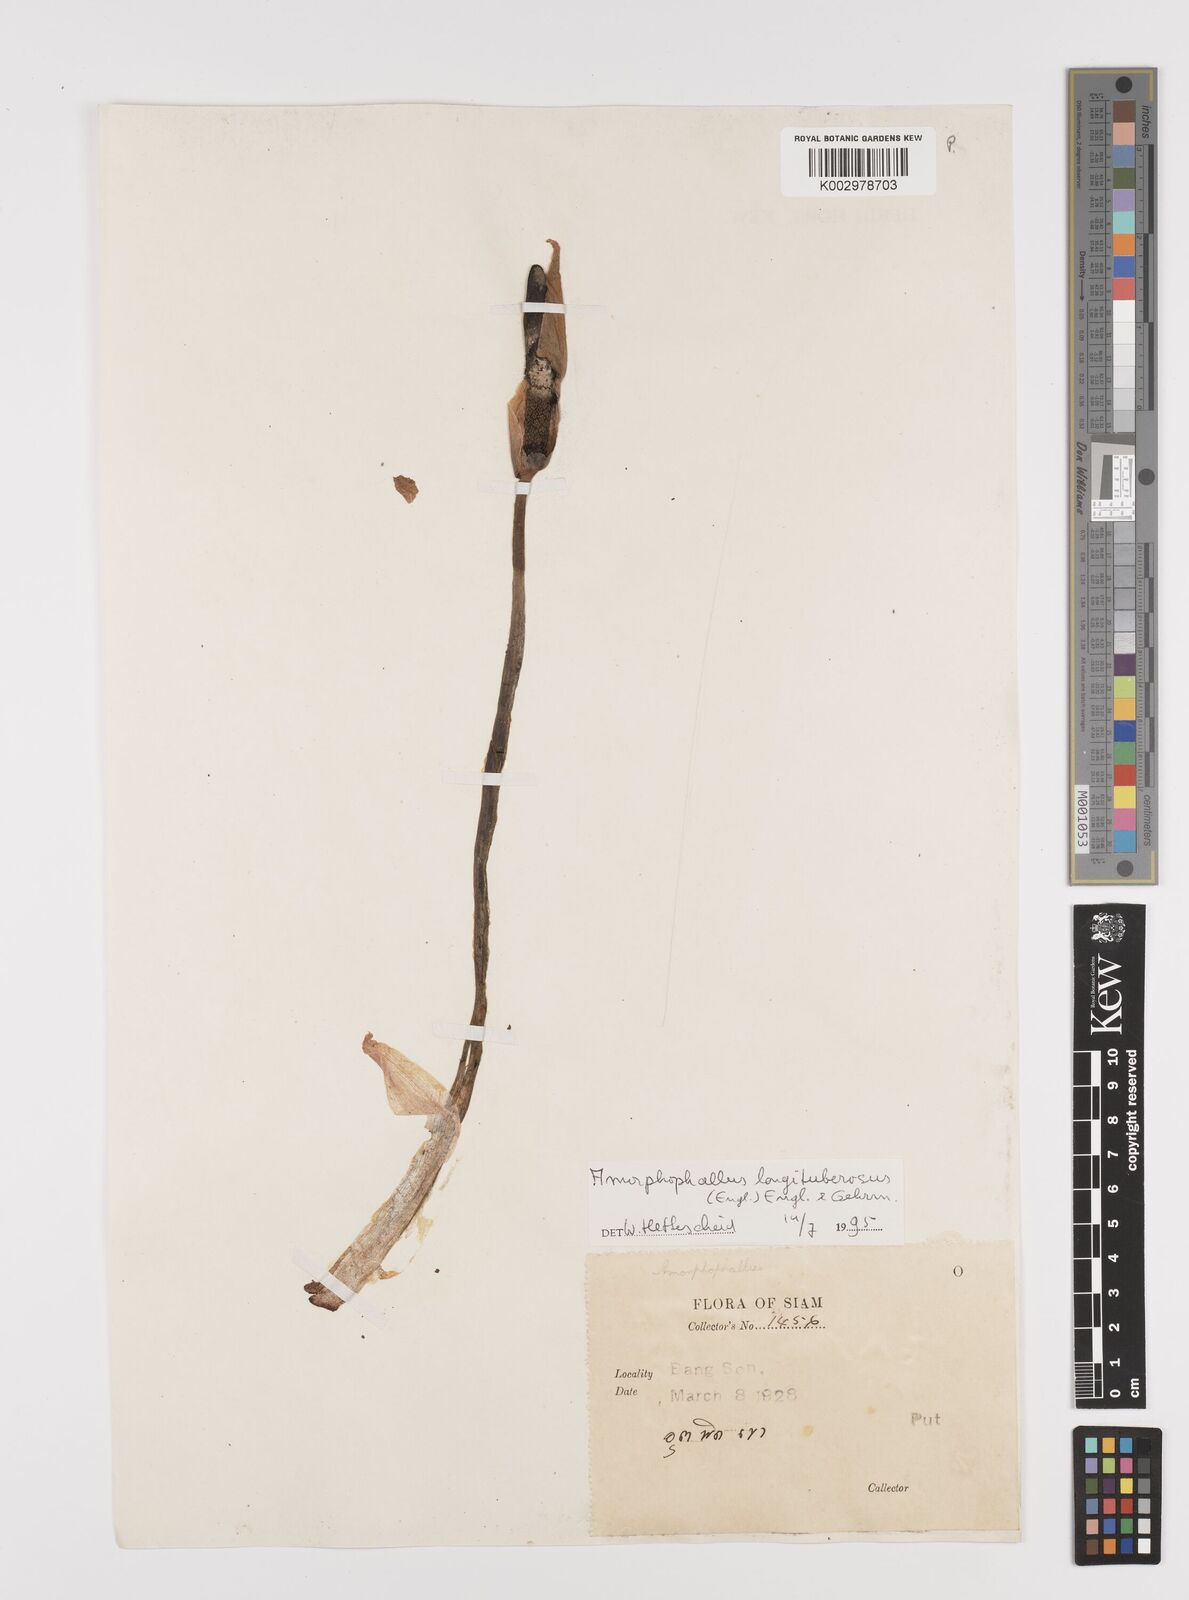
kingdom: Plantae
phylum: Tracheophyta
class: Liliopsida
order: Alismatales
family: Araceae
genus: Amorphophallus
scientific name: Amorphophallus longituberosus
